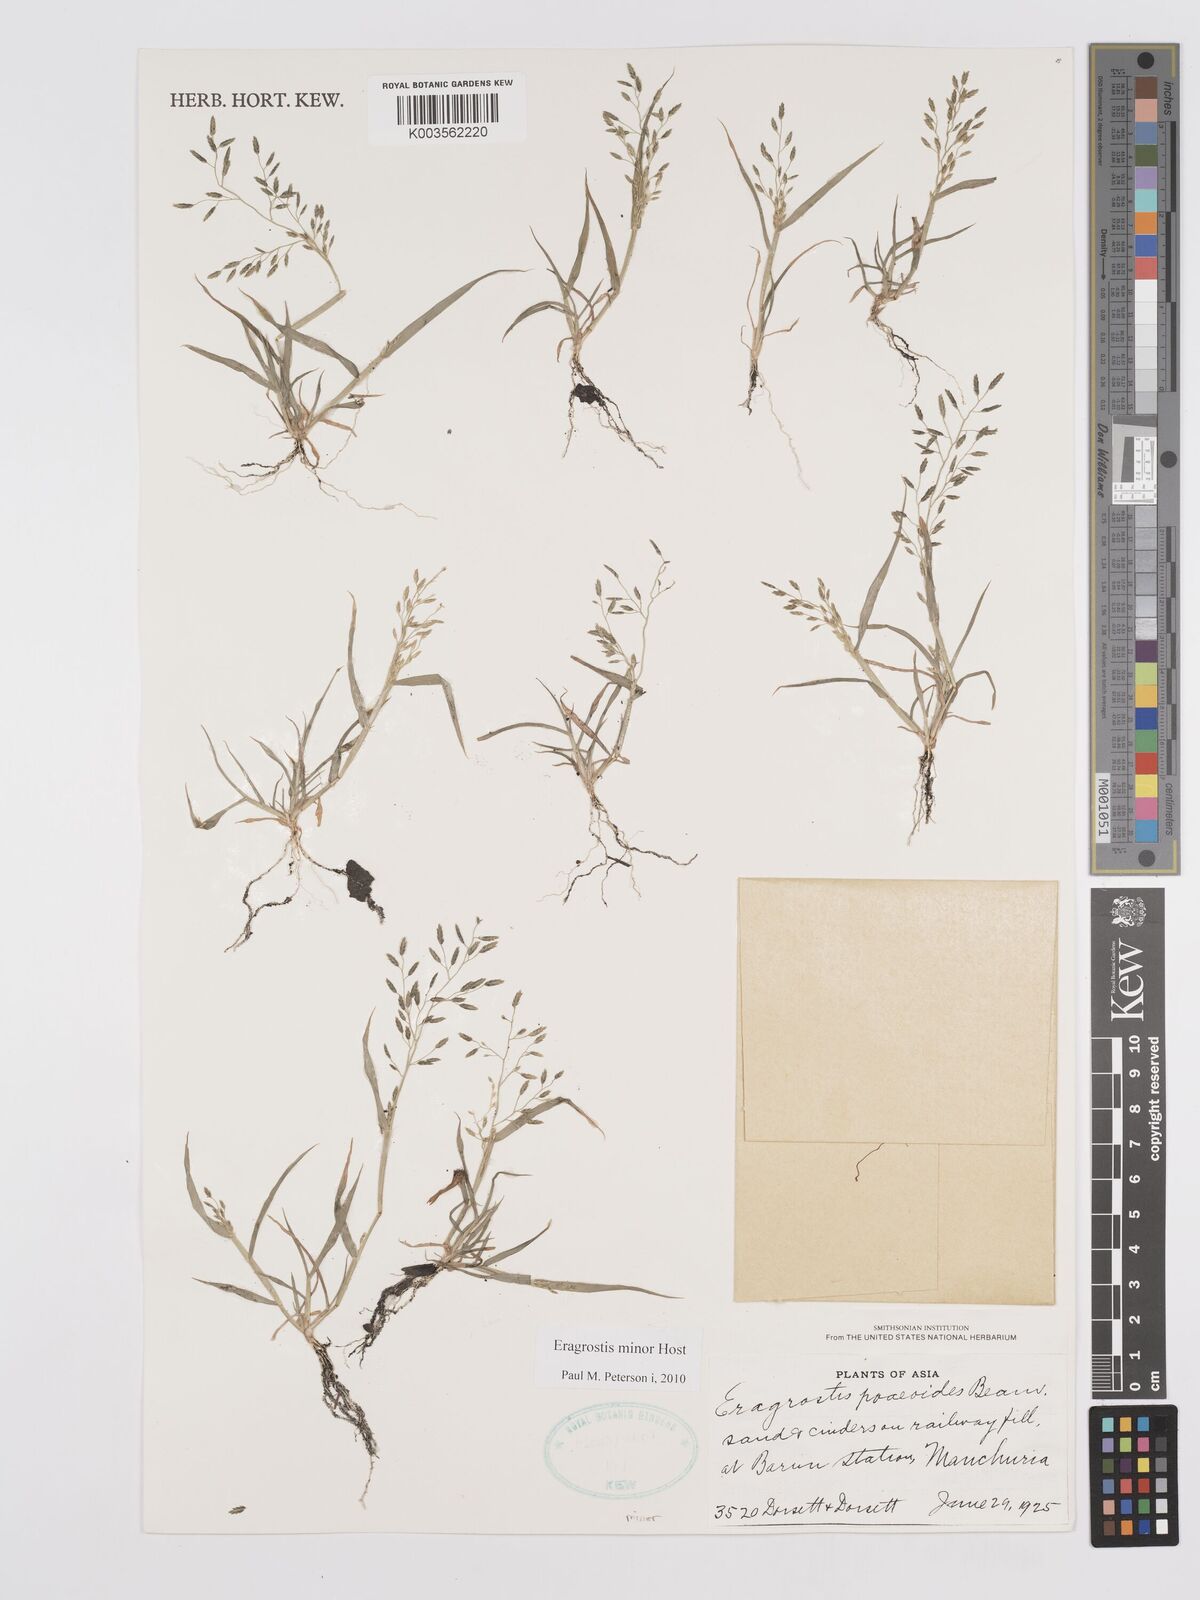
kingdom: Plantae
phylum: Tracheophyta
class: Liliopsida
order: Poales
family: Poaceae
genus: Eragrostis
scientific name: Eragrostis minor
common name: Small love-grass
